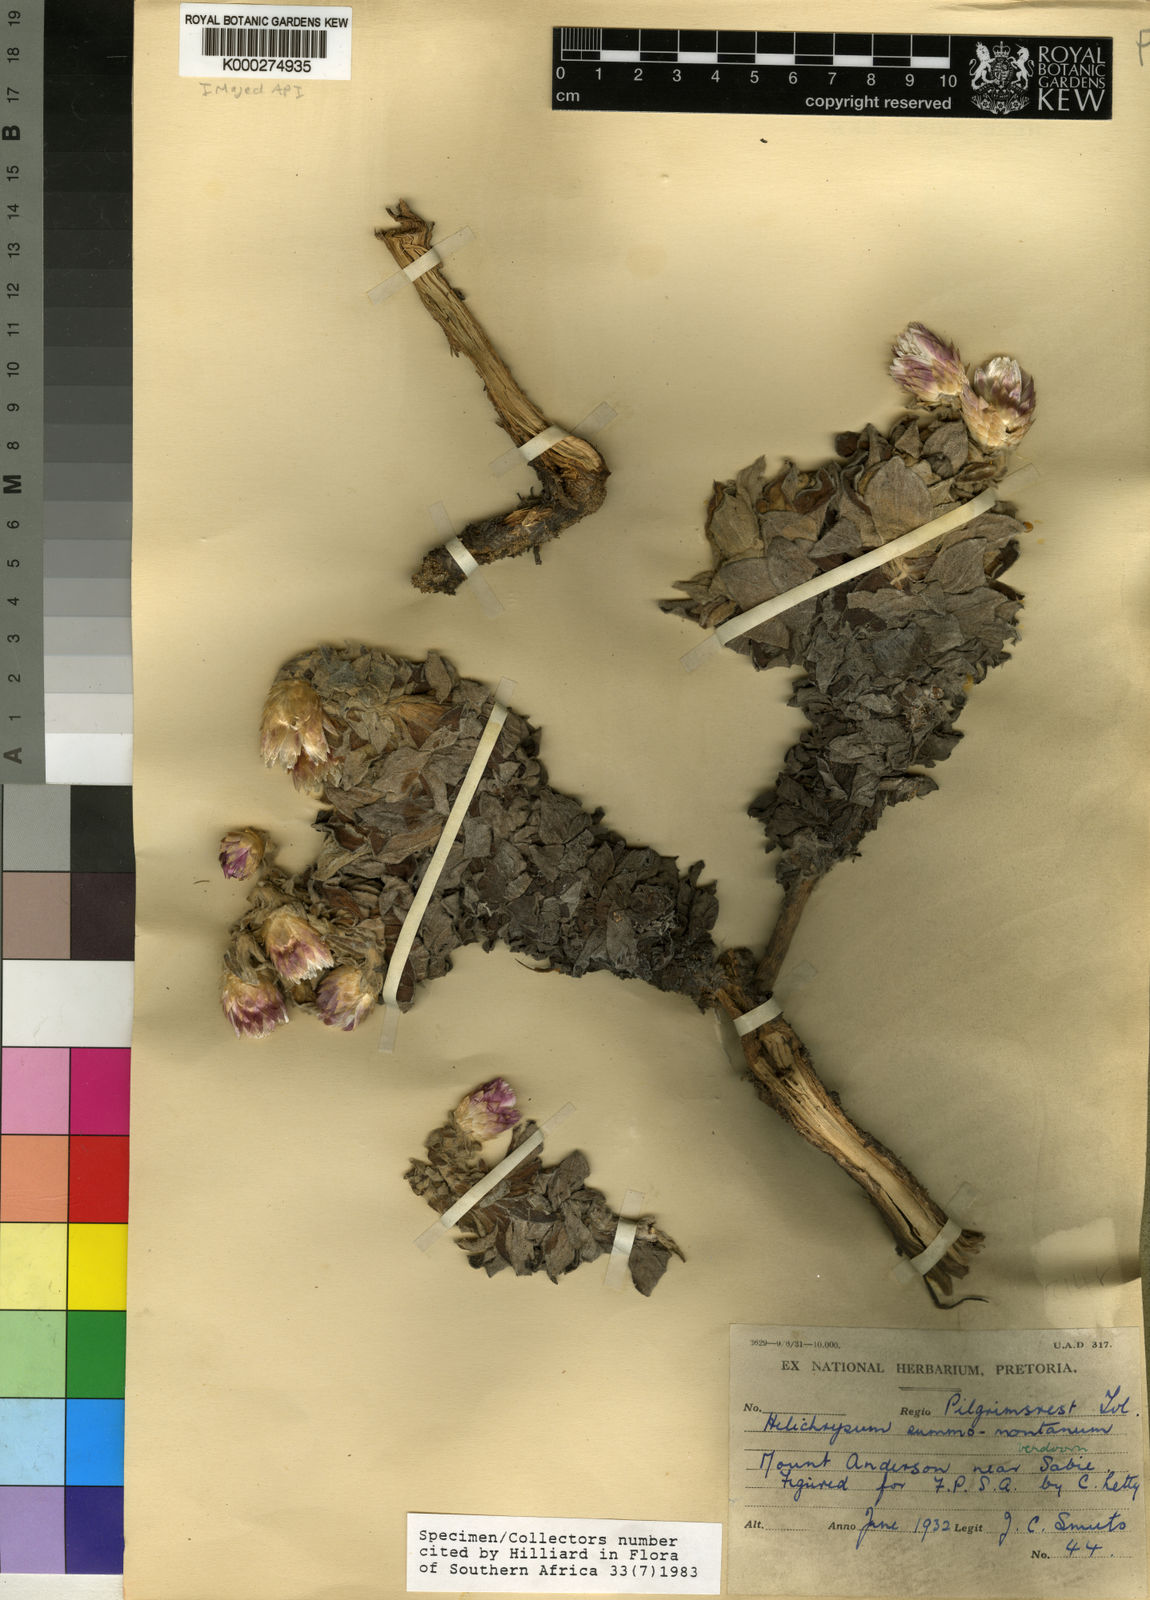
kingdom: Plantae
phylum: Tracheophyta
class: Magnoliopsida
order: Asterales
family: Asteraceae
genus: Helichrysum
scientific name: Helichrysum summo-montanum
